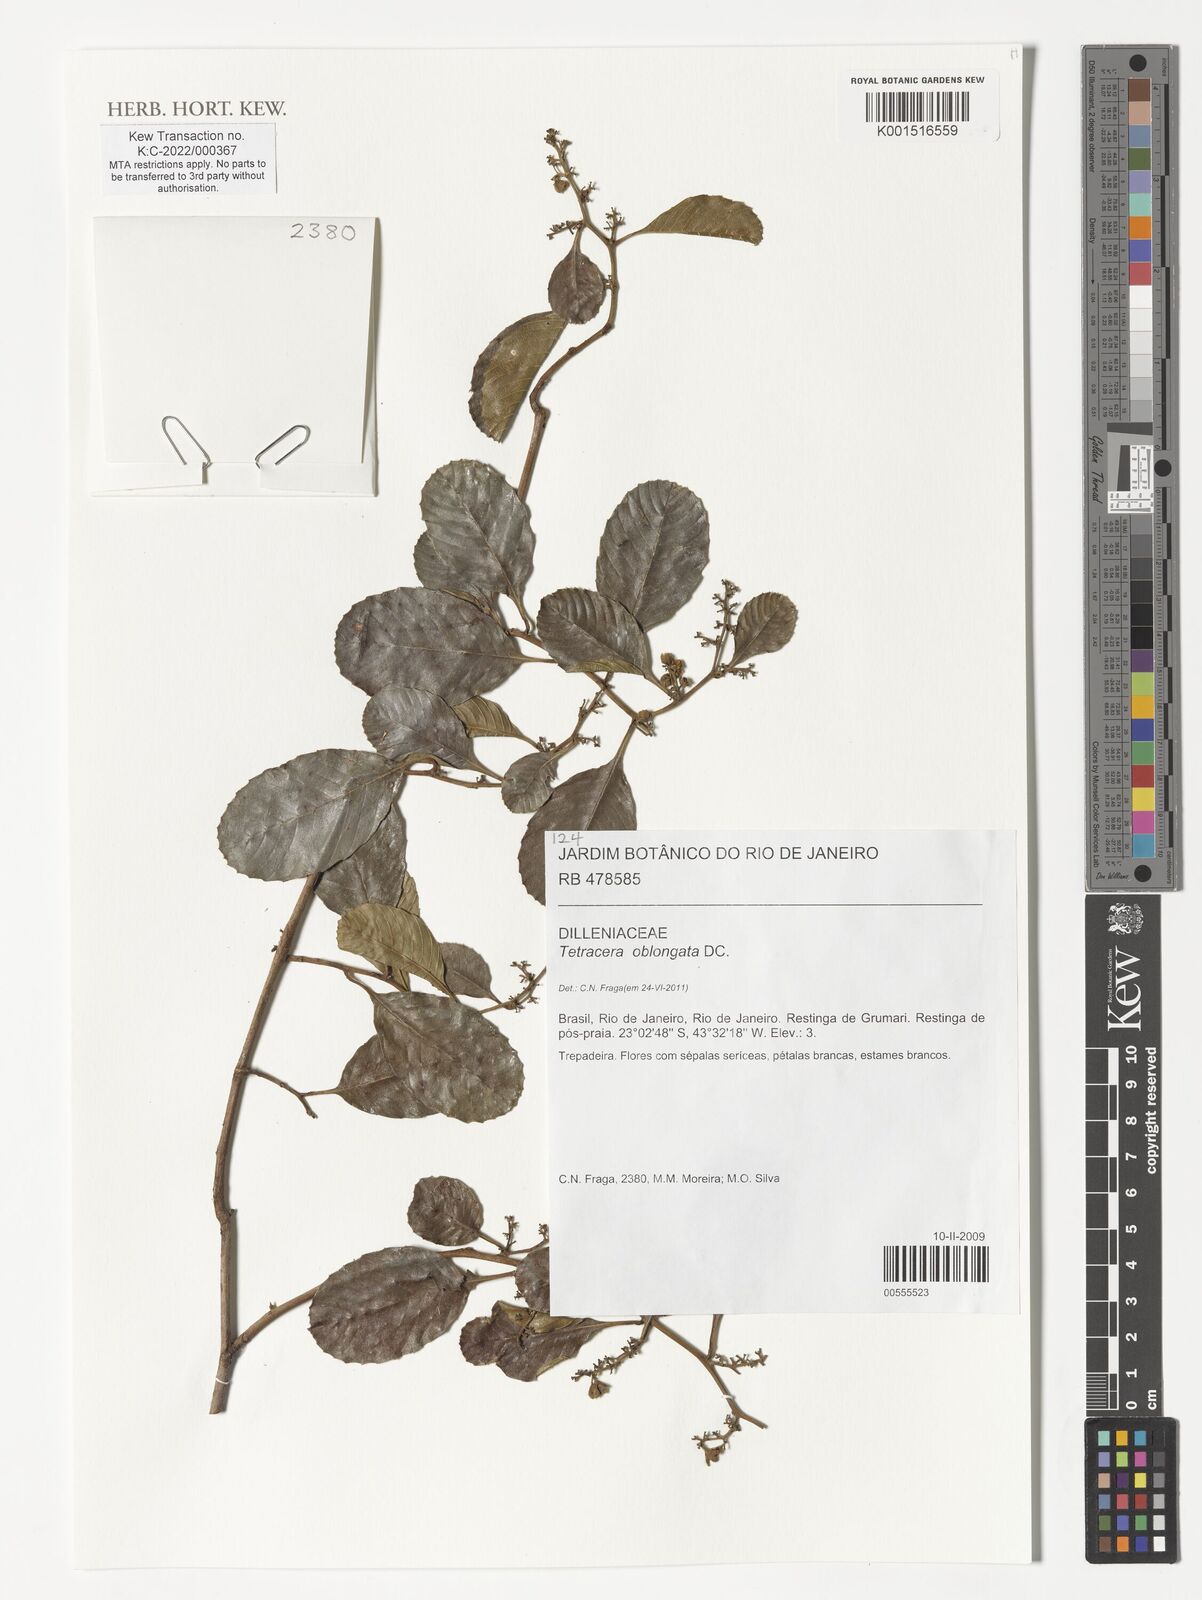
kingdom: Plantae
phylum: Tracheophyta
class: Magnoliopsida
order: Dilleniales
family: Dilleniaceae
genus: Tetracera
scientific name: Tetracera oblongata
